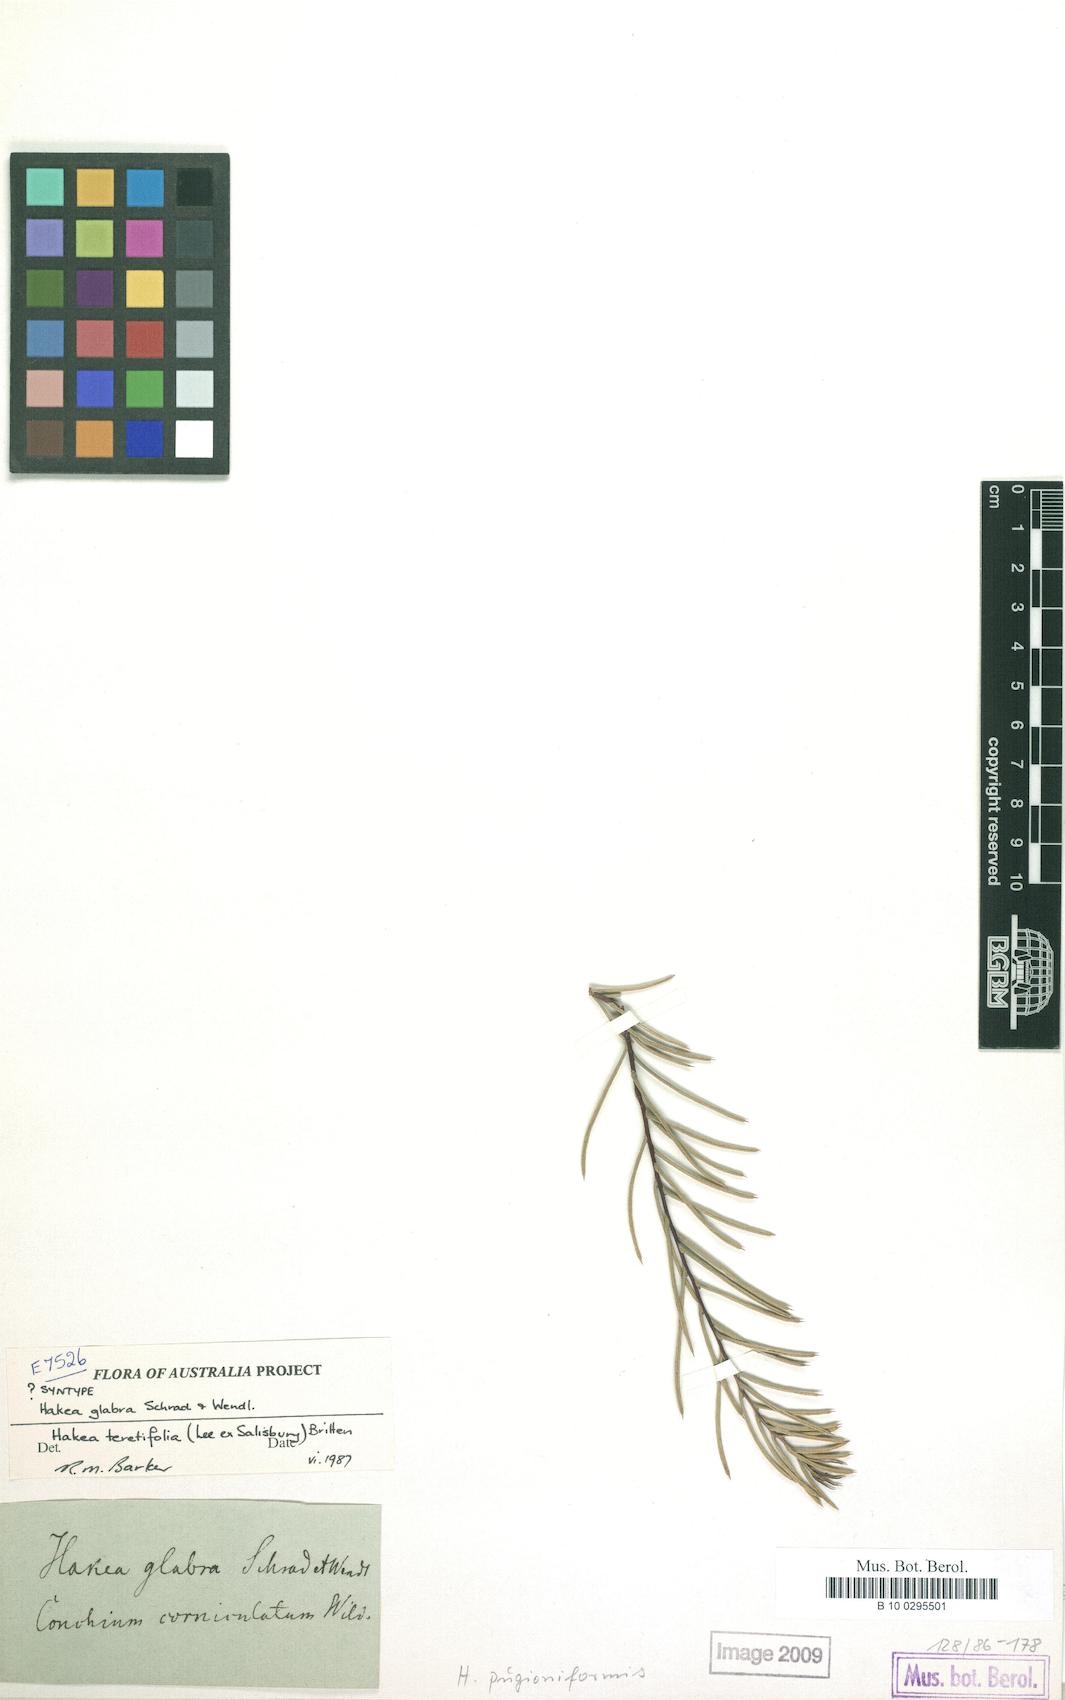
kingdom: Plantae
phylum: Tracheophyta
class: Magnoliopsida
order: Proteales
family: Proteaceae
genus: Hakea
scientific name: Hakea teretifolia
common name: Dagger hakea
